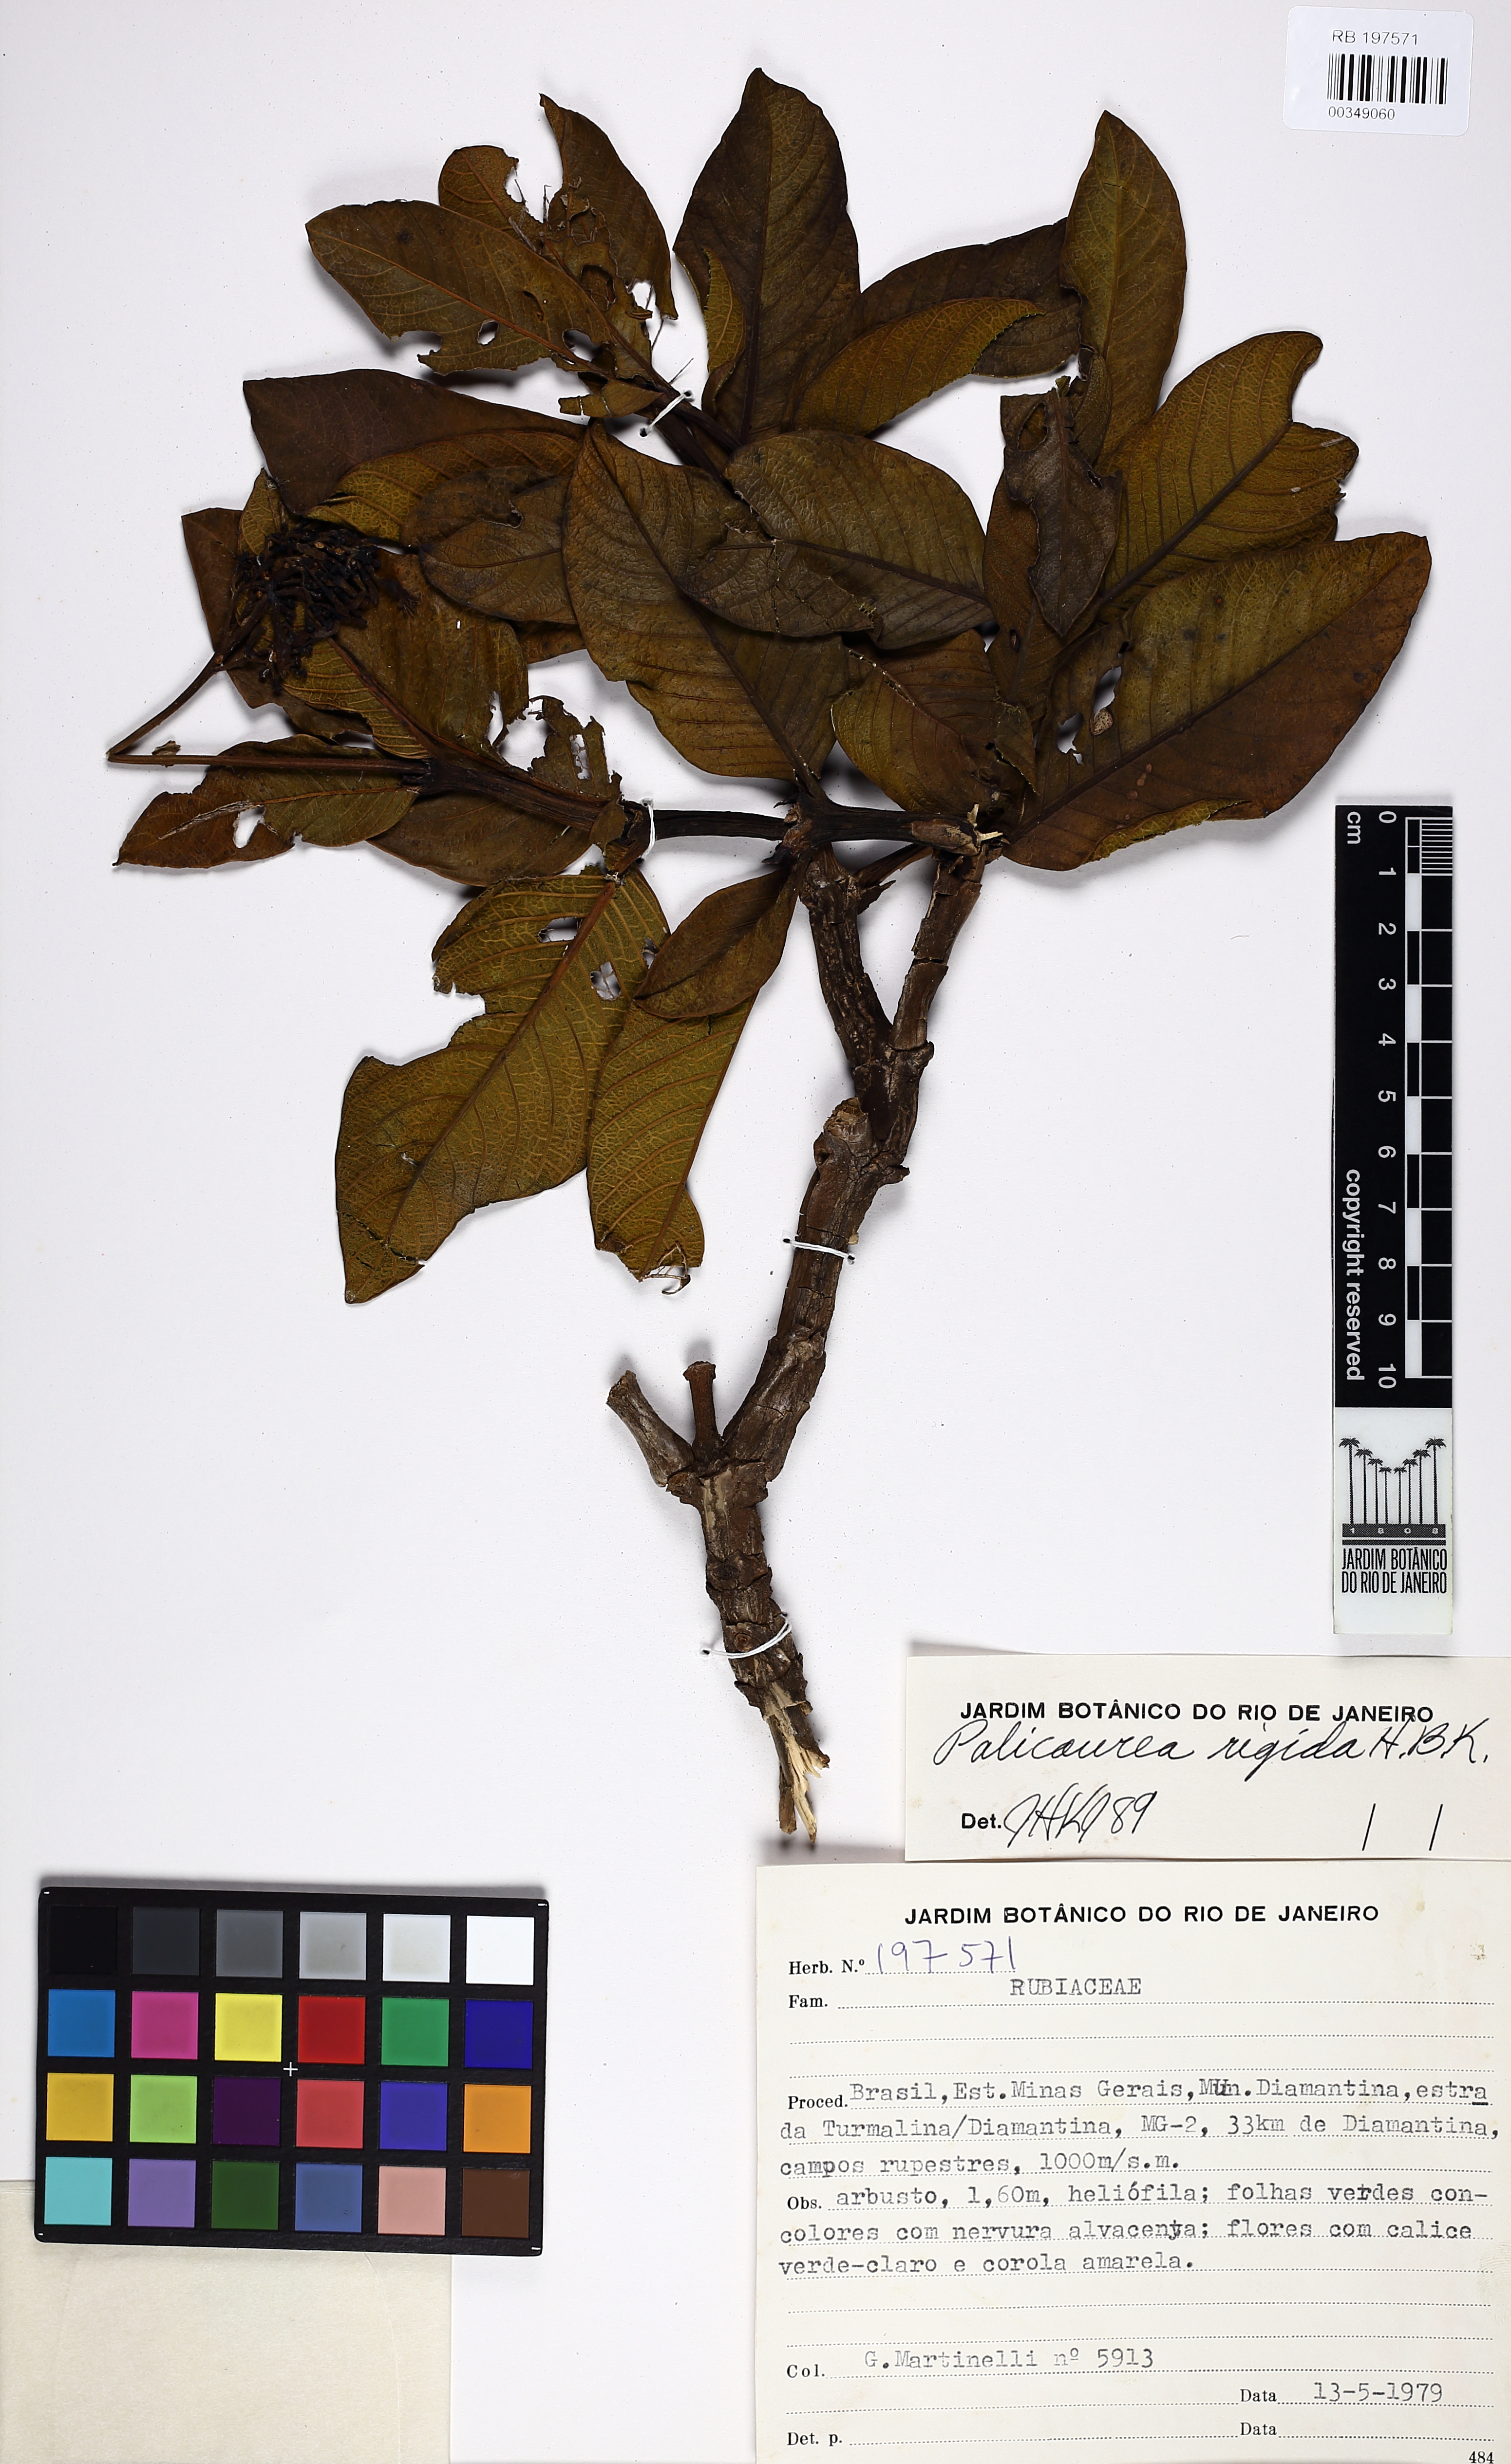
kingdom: Plantae
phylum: Tracheophyta
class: Magnoliopsida
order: Gentianales
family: Rubiaceae
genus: Palicourea
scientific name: Palicourea rigida
